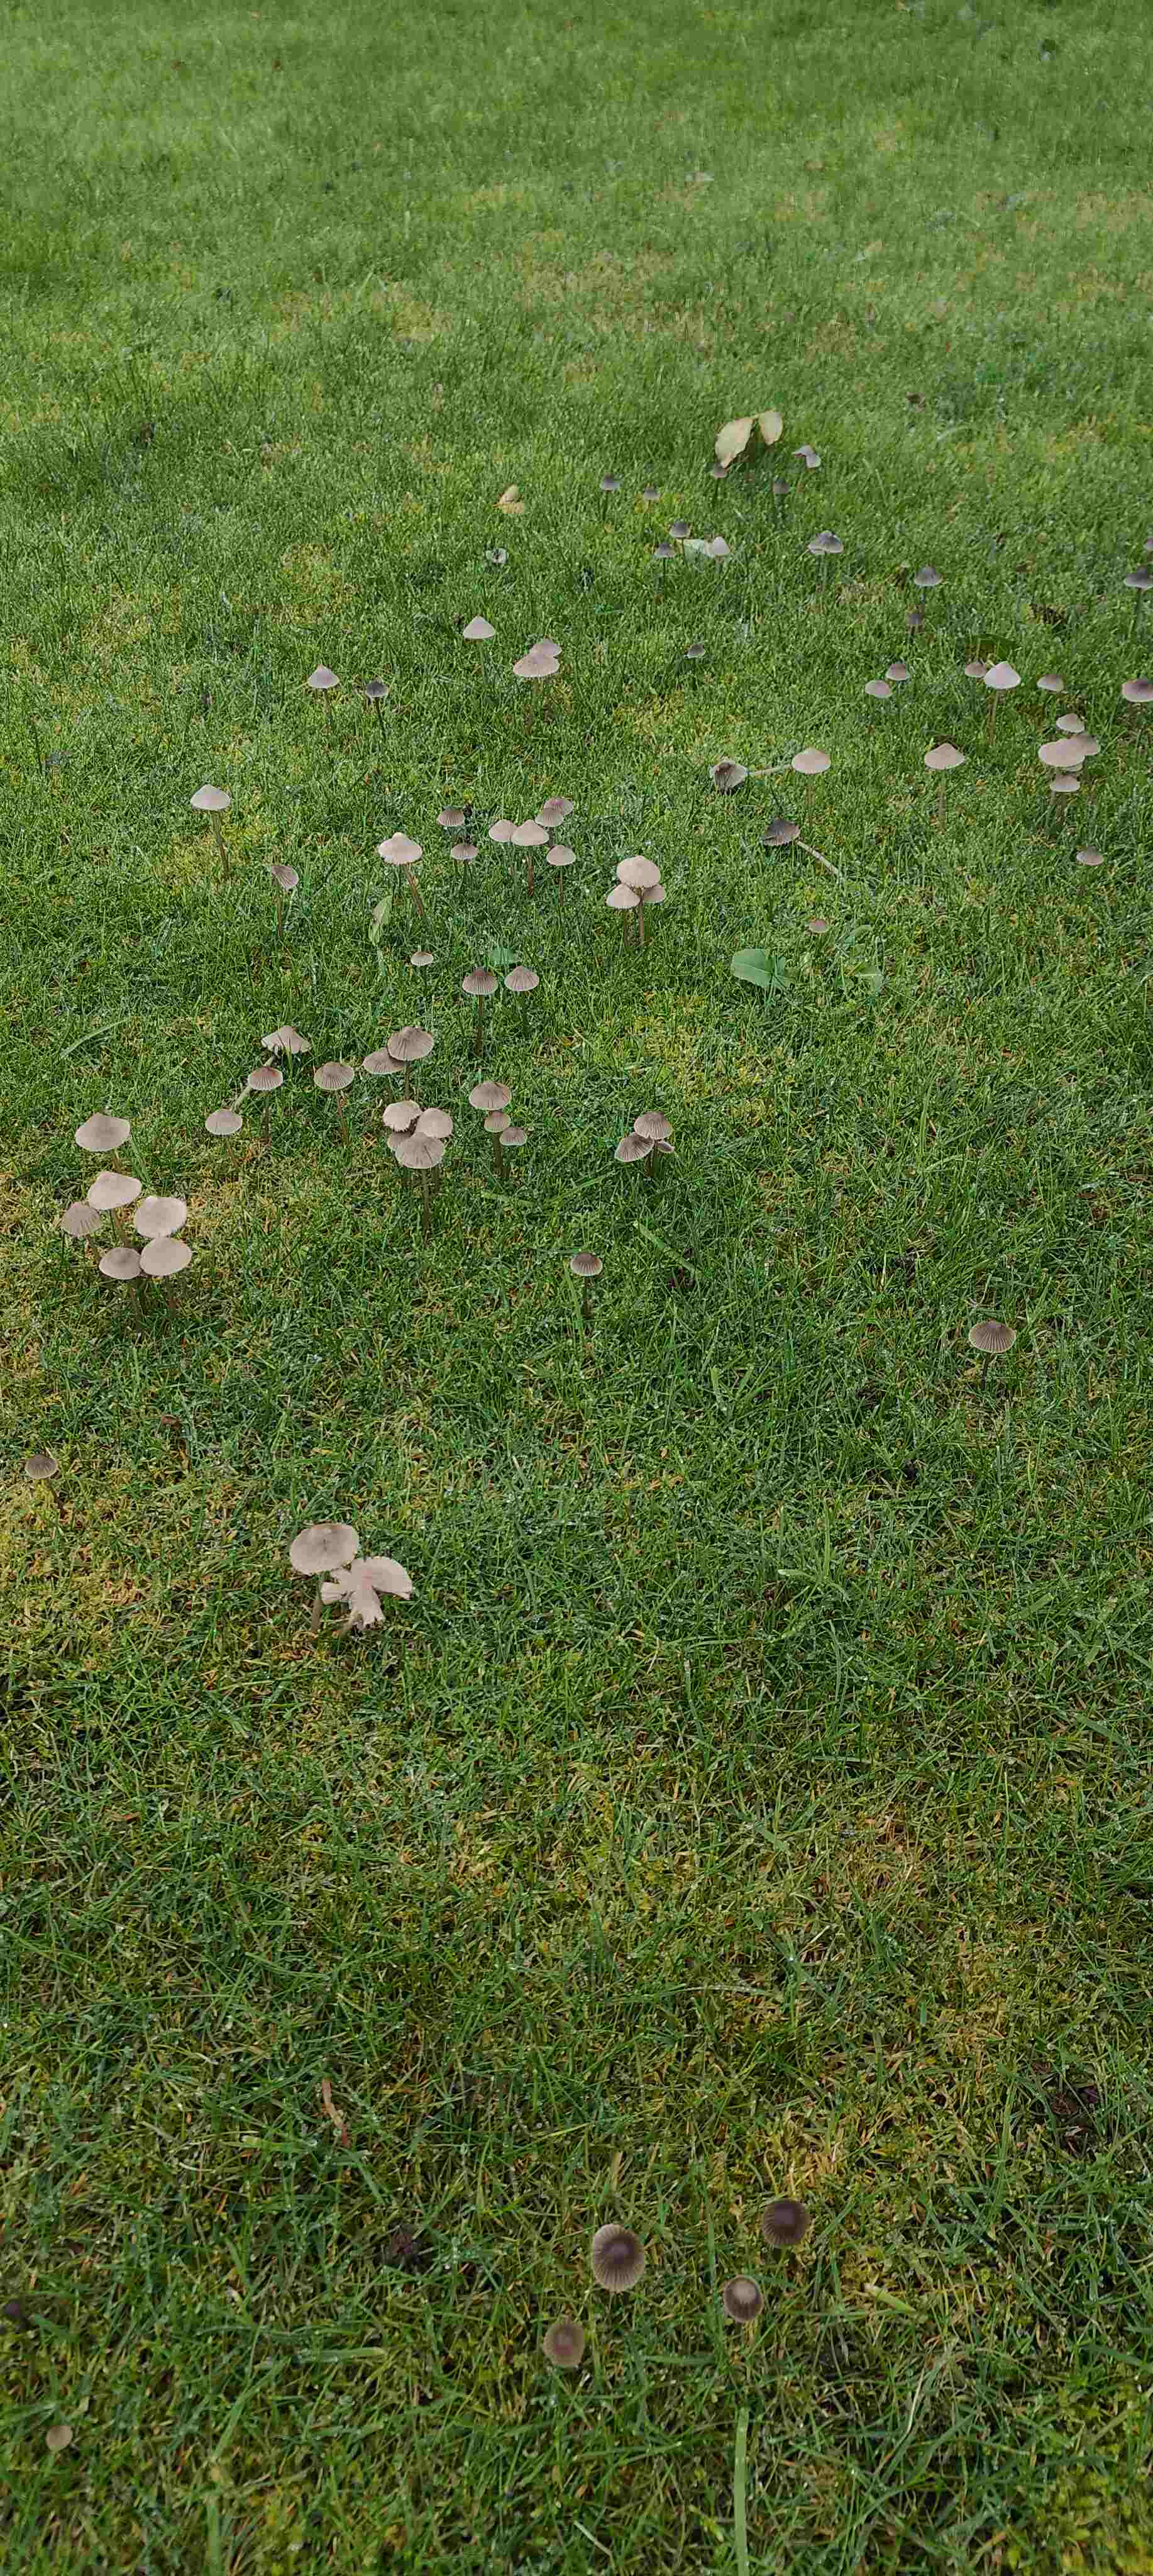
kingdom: Fungi
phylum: Basidiomycota
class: Agaricomycetes
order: Agaricales
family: Mycenaceae
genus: Mycena
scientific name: Mycena aetites
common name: plæne-huesvamp
